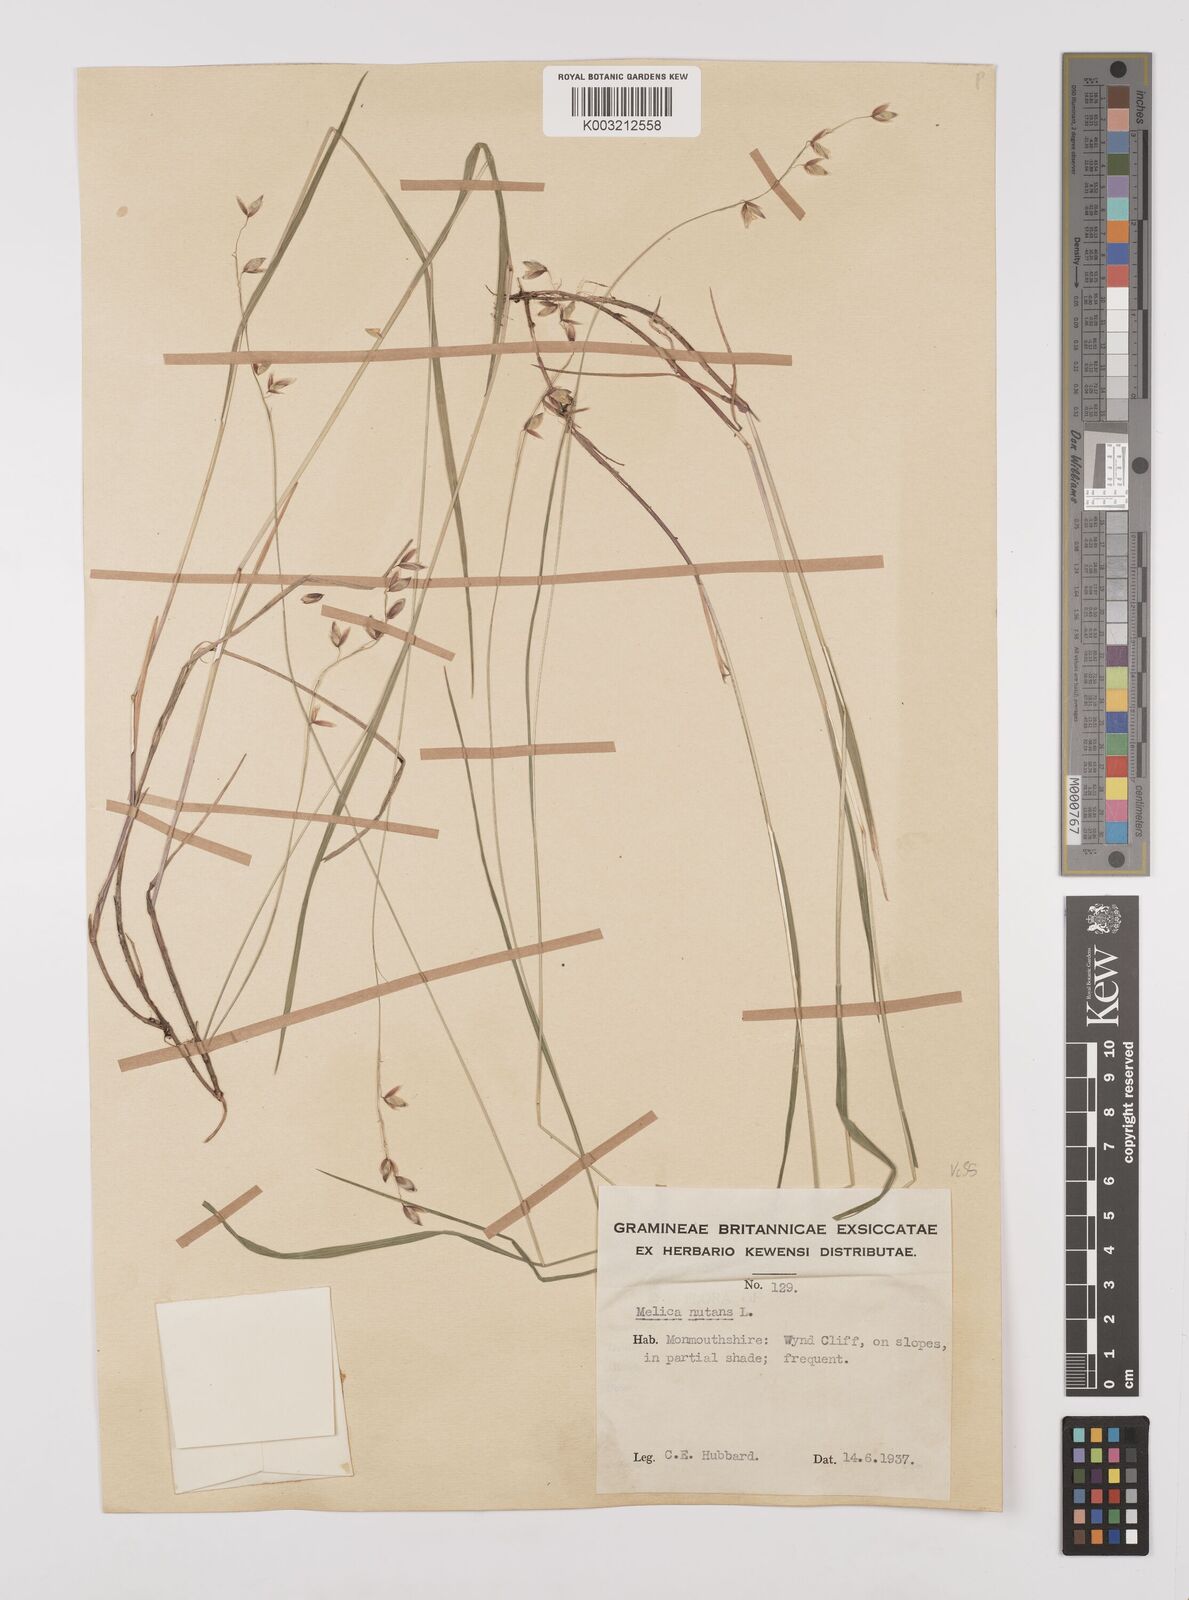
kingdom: Plantae
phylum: Tracheophyta
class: Liliopsida
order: Poales
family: Poaceae
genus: Melica
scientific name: Melica
